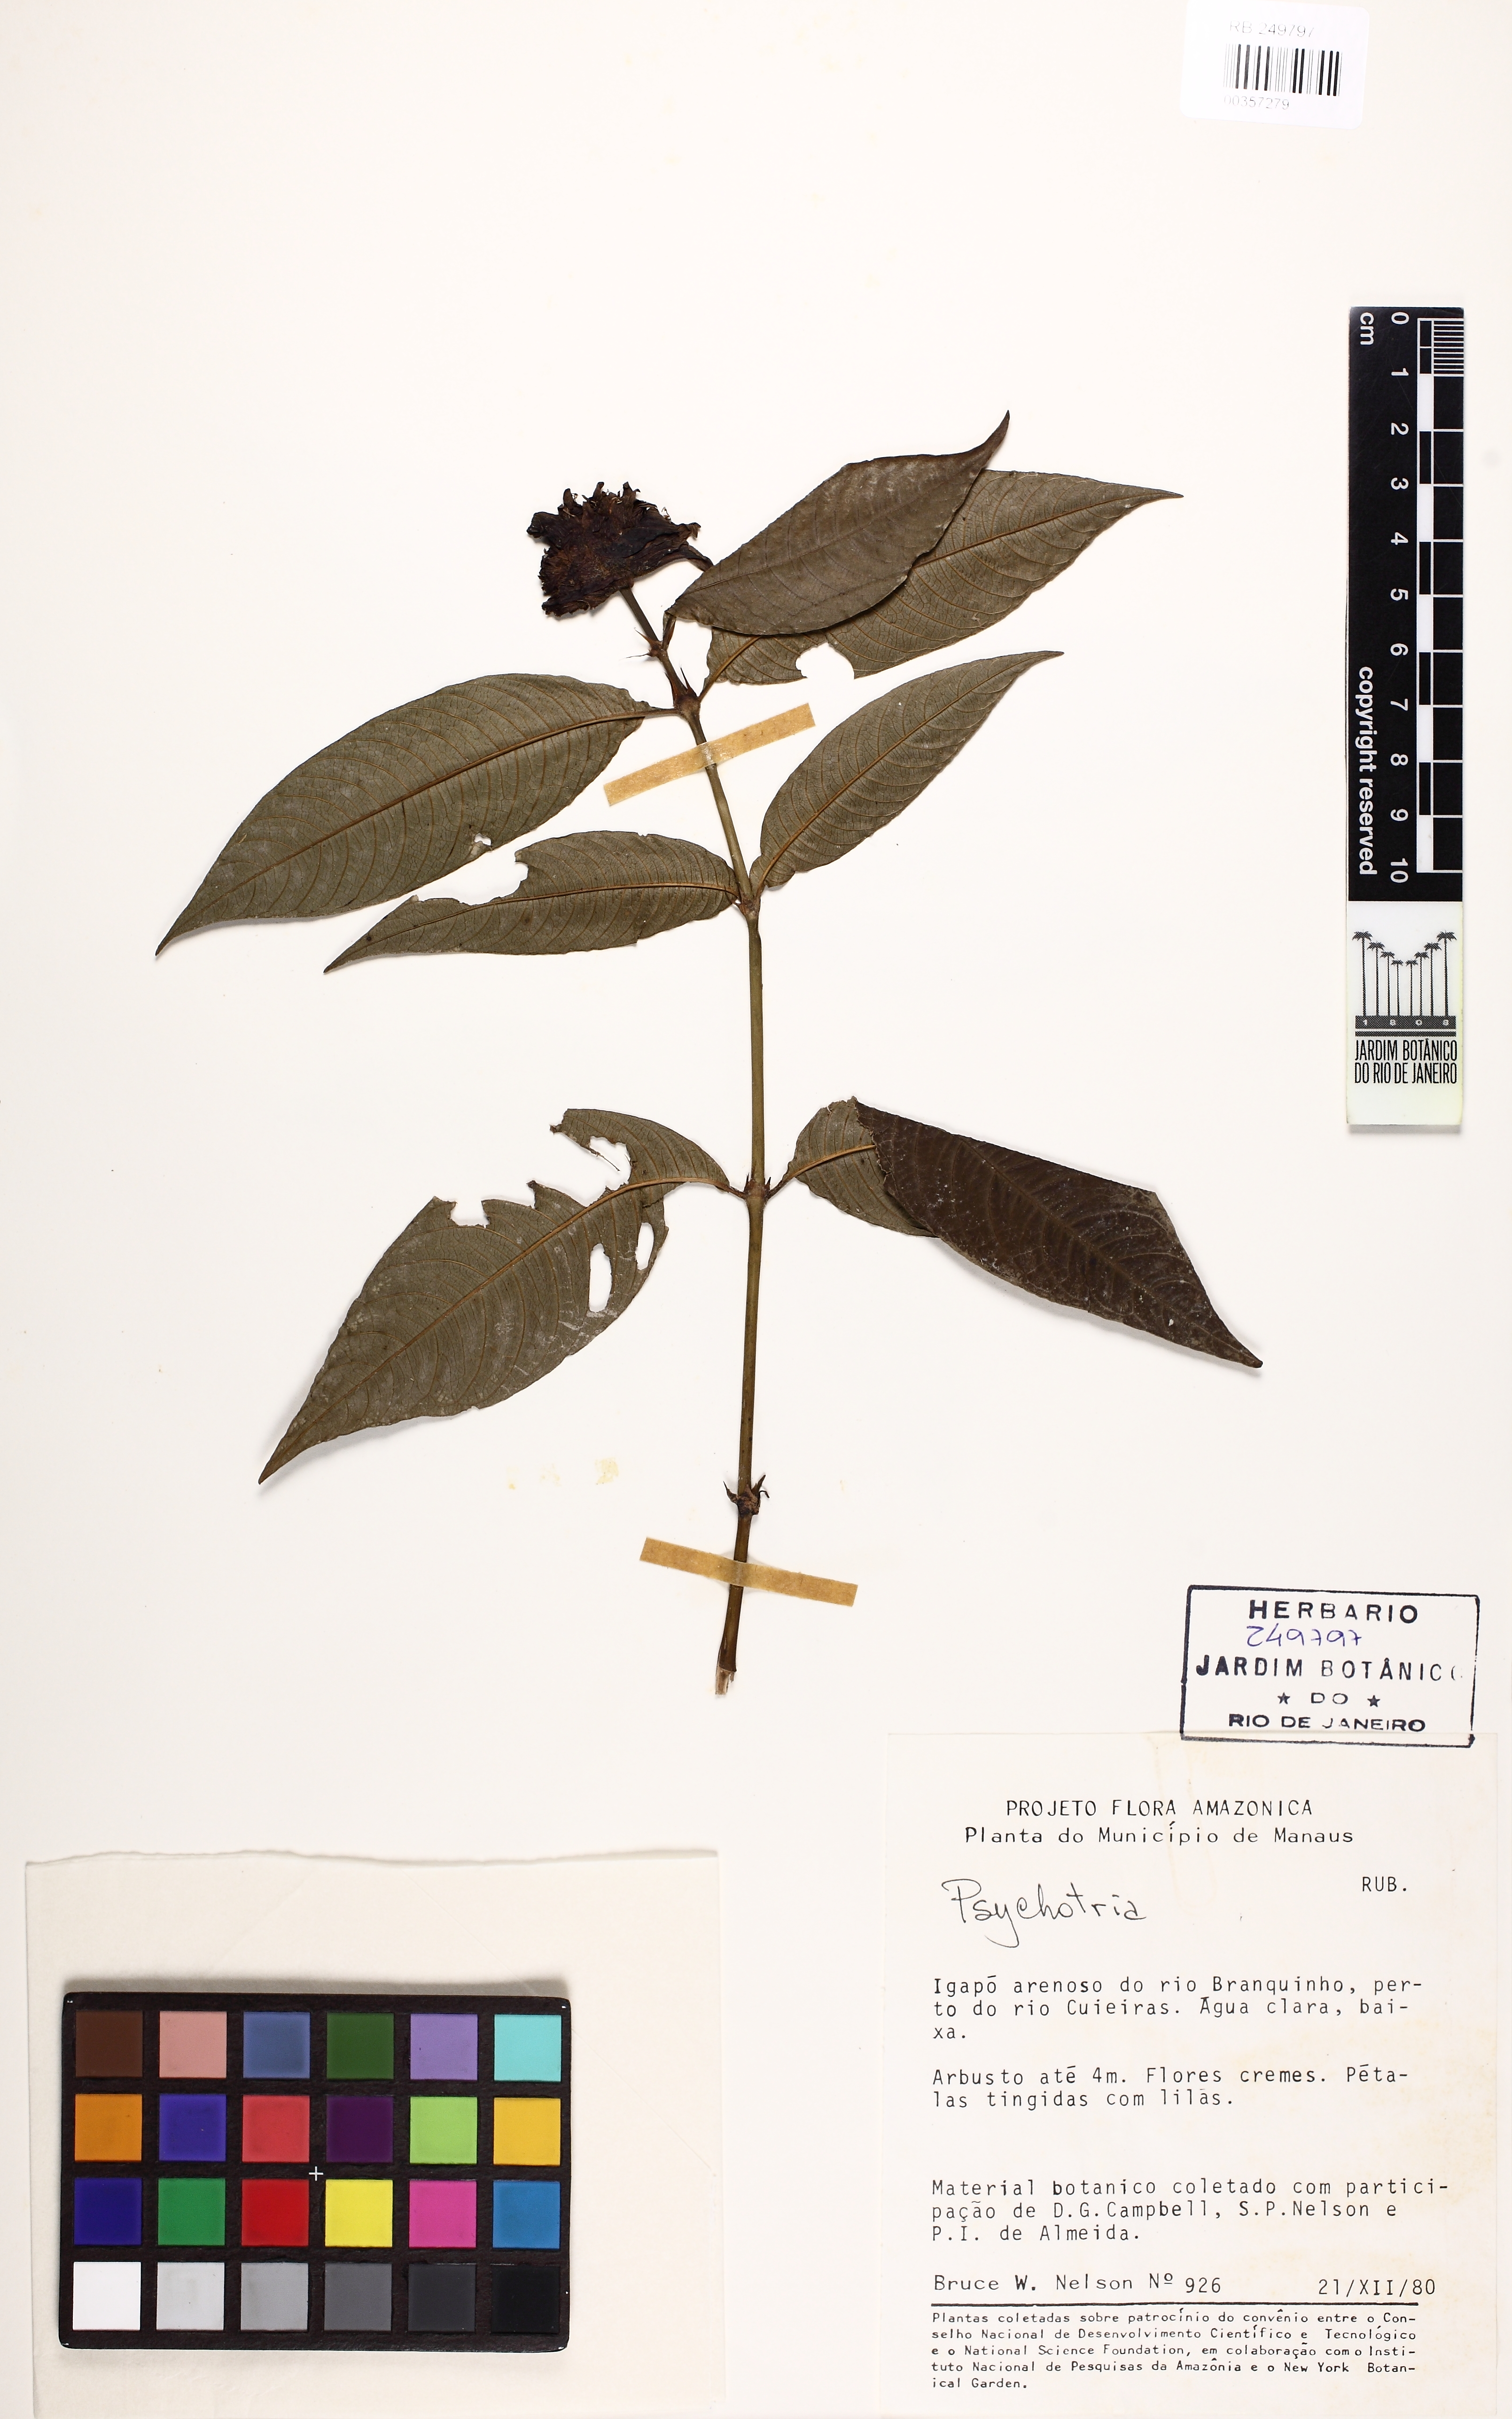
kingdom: Plantae
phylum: Tracheophyta
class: Magnoliopsida
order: Gentianales
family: Rubiaceae
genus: Palicourea
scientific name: Palicourea colorata
